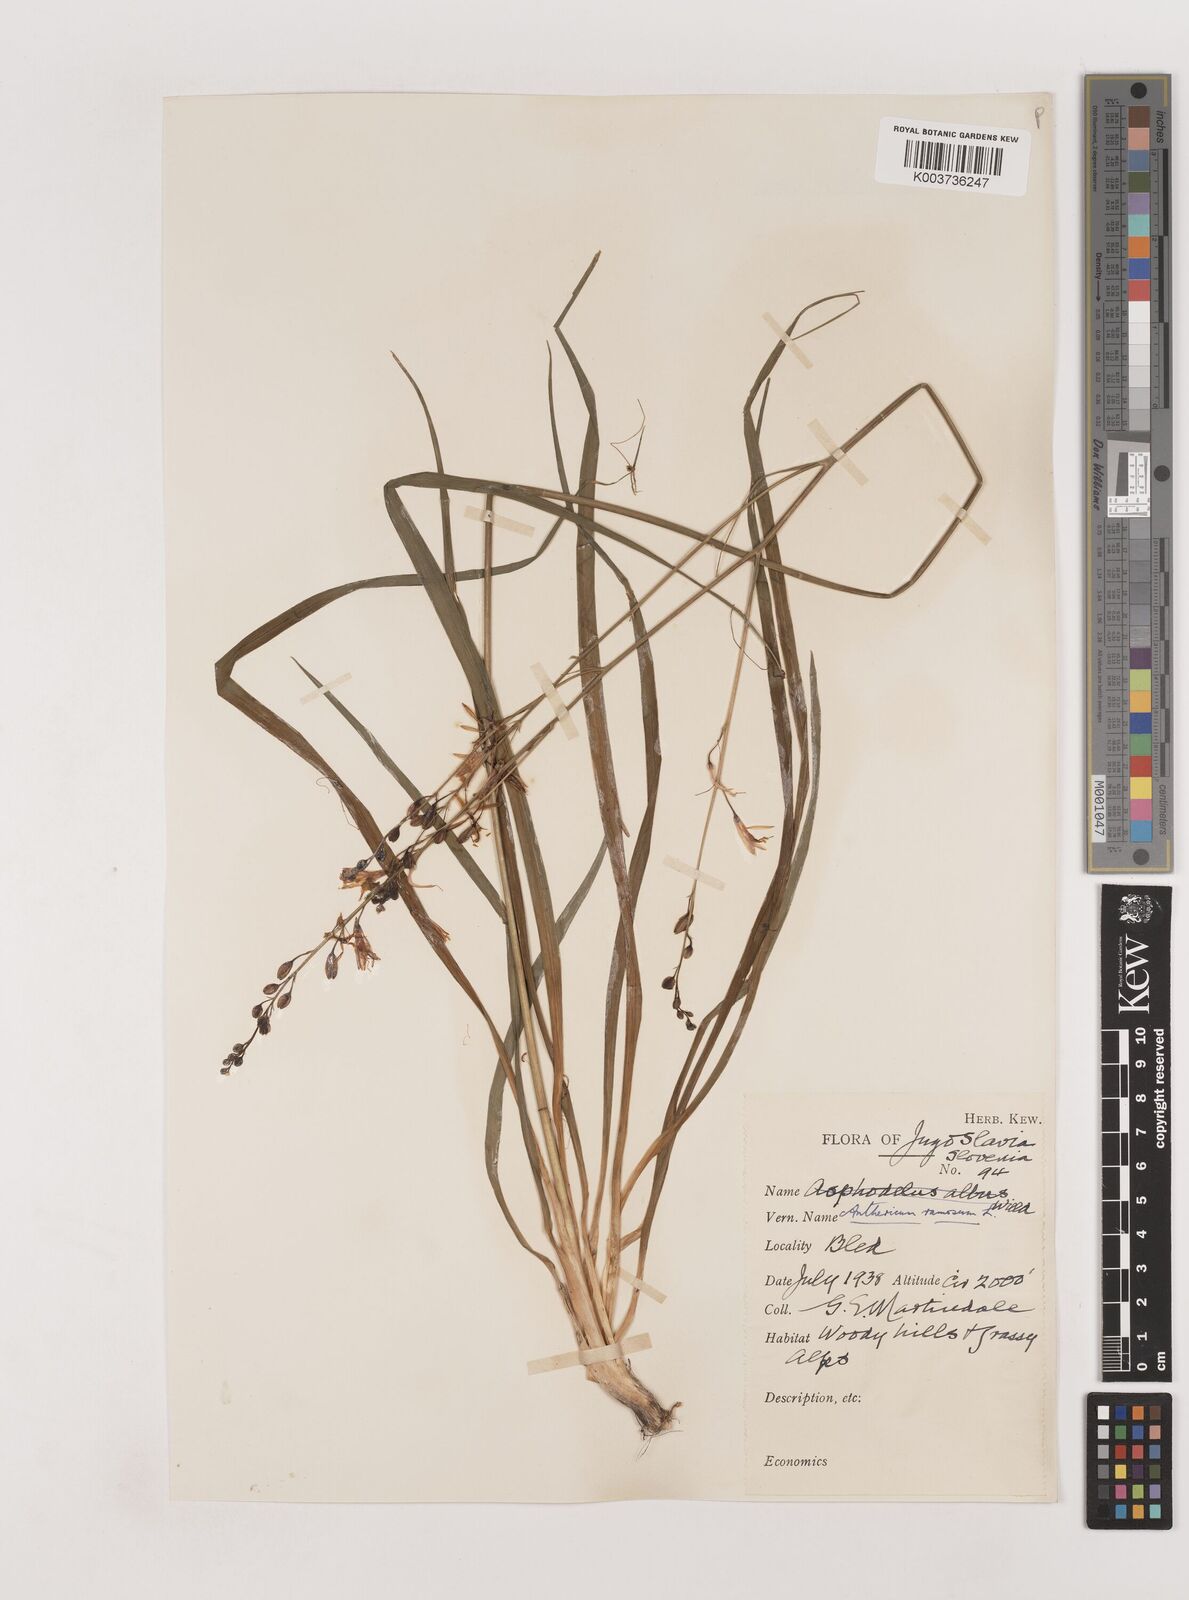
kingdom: Plantae
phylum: Tracheophyta
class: Liliopsida
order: Asparagales
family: Asparagaceae
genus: Anthericum
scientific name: Anthericum ramosum
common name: Branched st. bernard's-lily
